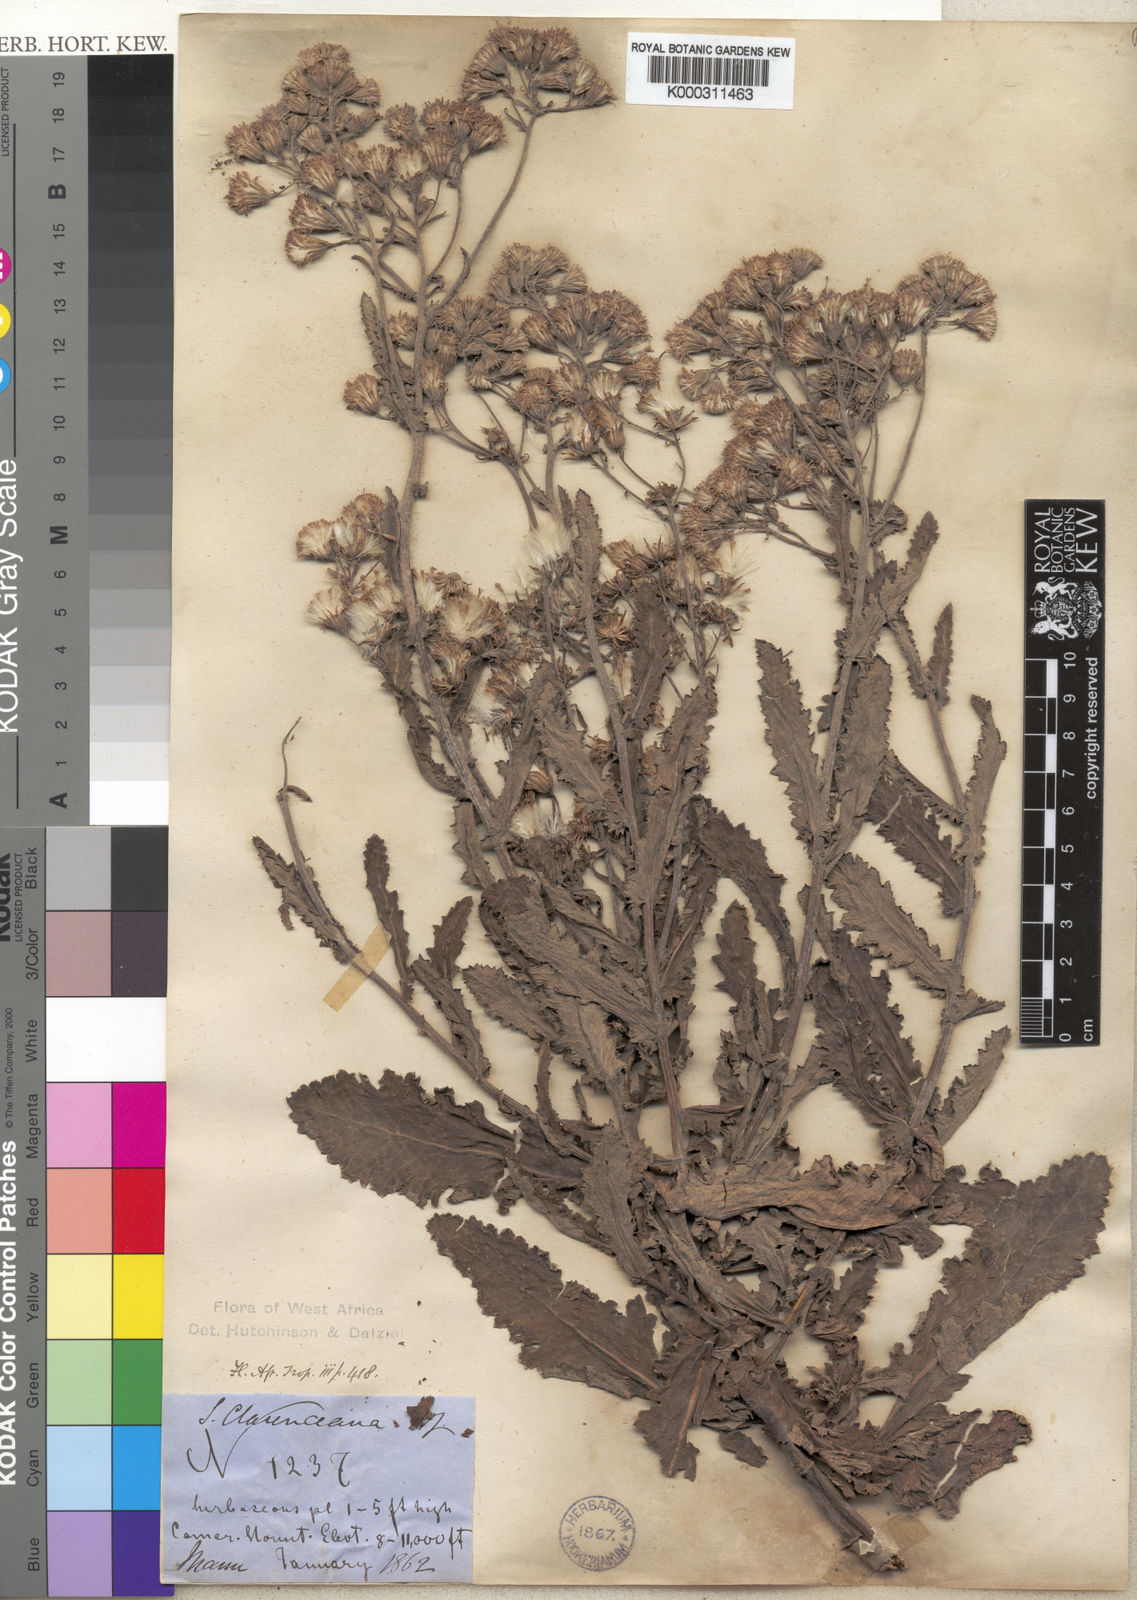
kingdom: Plantae
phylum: Tracheophyta
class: Magnoliopsida
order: Asterales
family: Asteraceae
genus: Senecio
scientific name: Senecio
